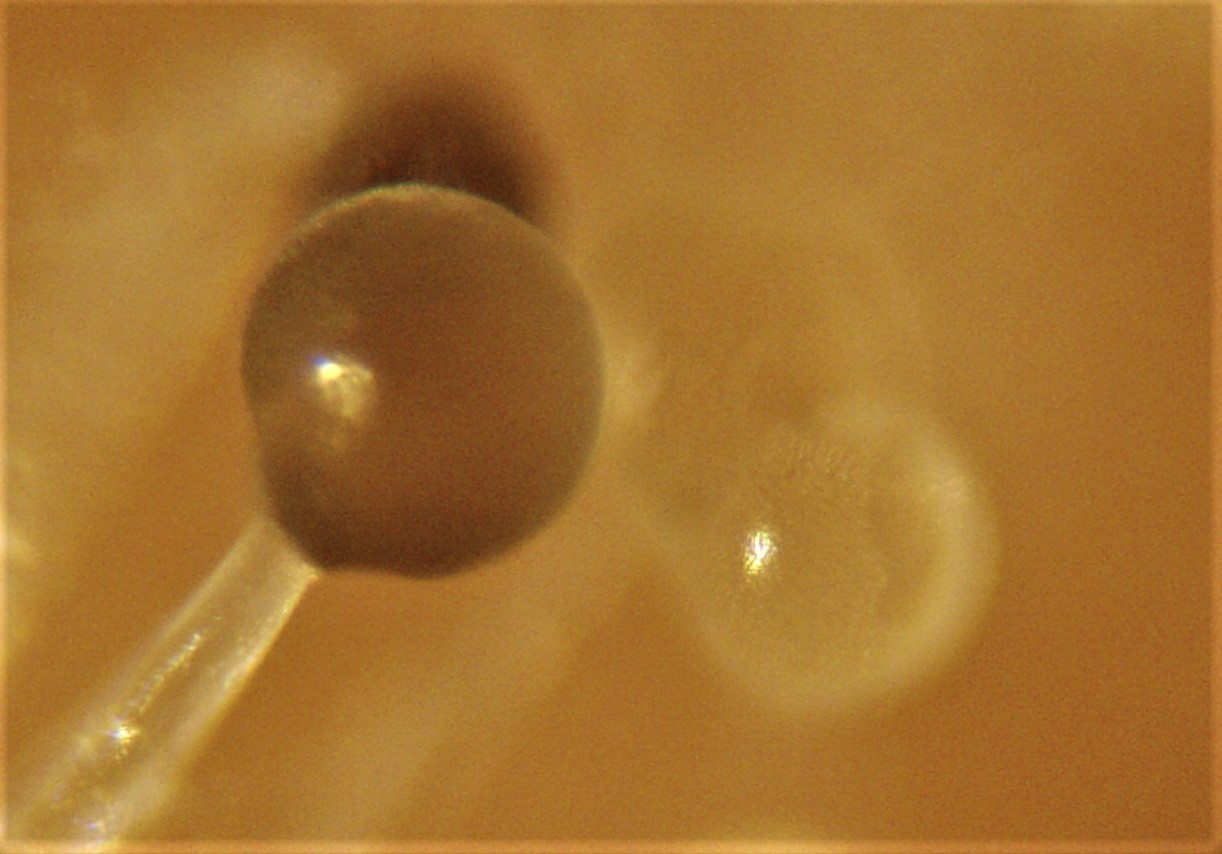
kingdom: Fungi
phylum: Mucoromycota
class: Mucoromycetes
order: Mucorales
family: Mucoraceae
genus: Mucor
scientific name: Mucor
